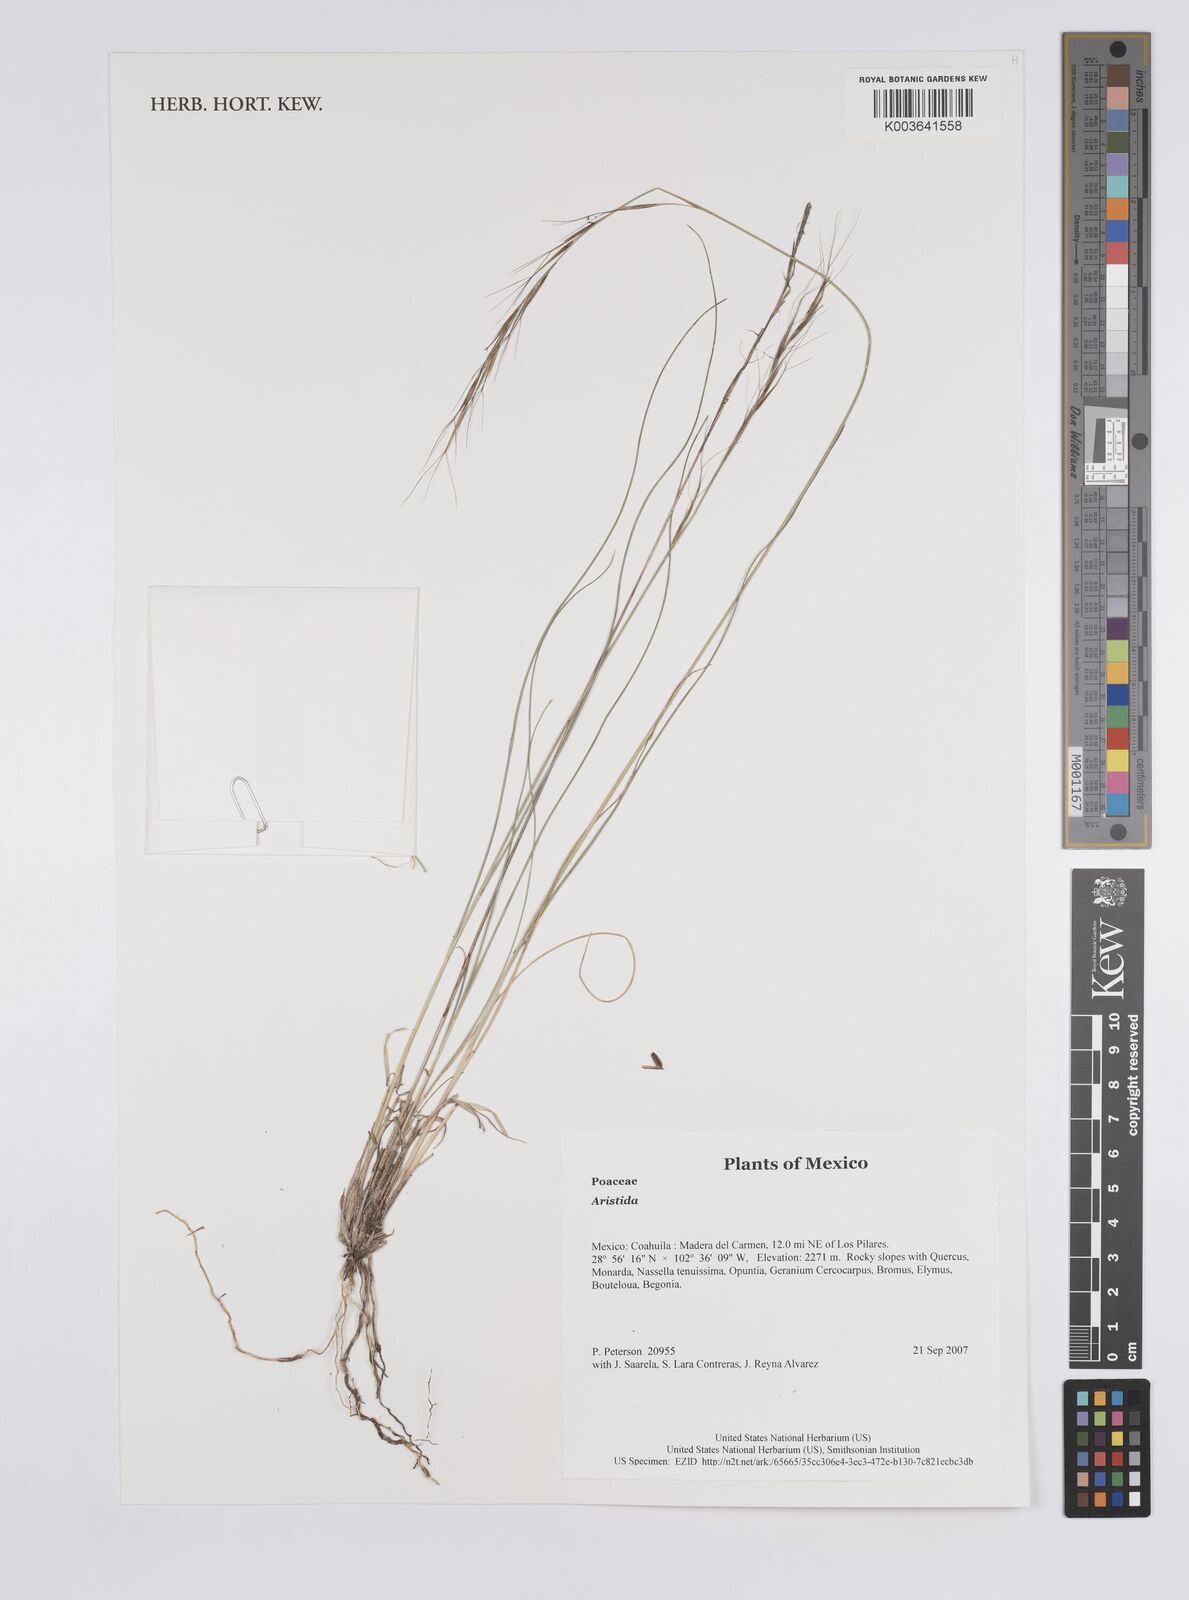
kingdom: Plantae
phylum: Tracheophyta
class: Liliopsida
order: Poales
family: Poaceae
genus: Aristida
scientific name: Aristida
